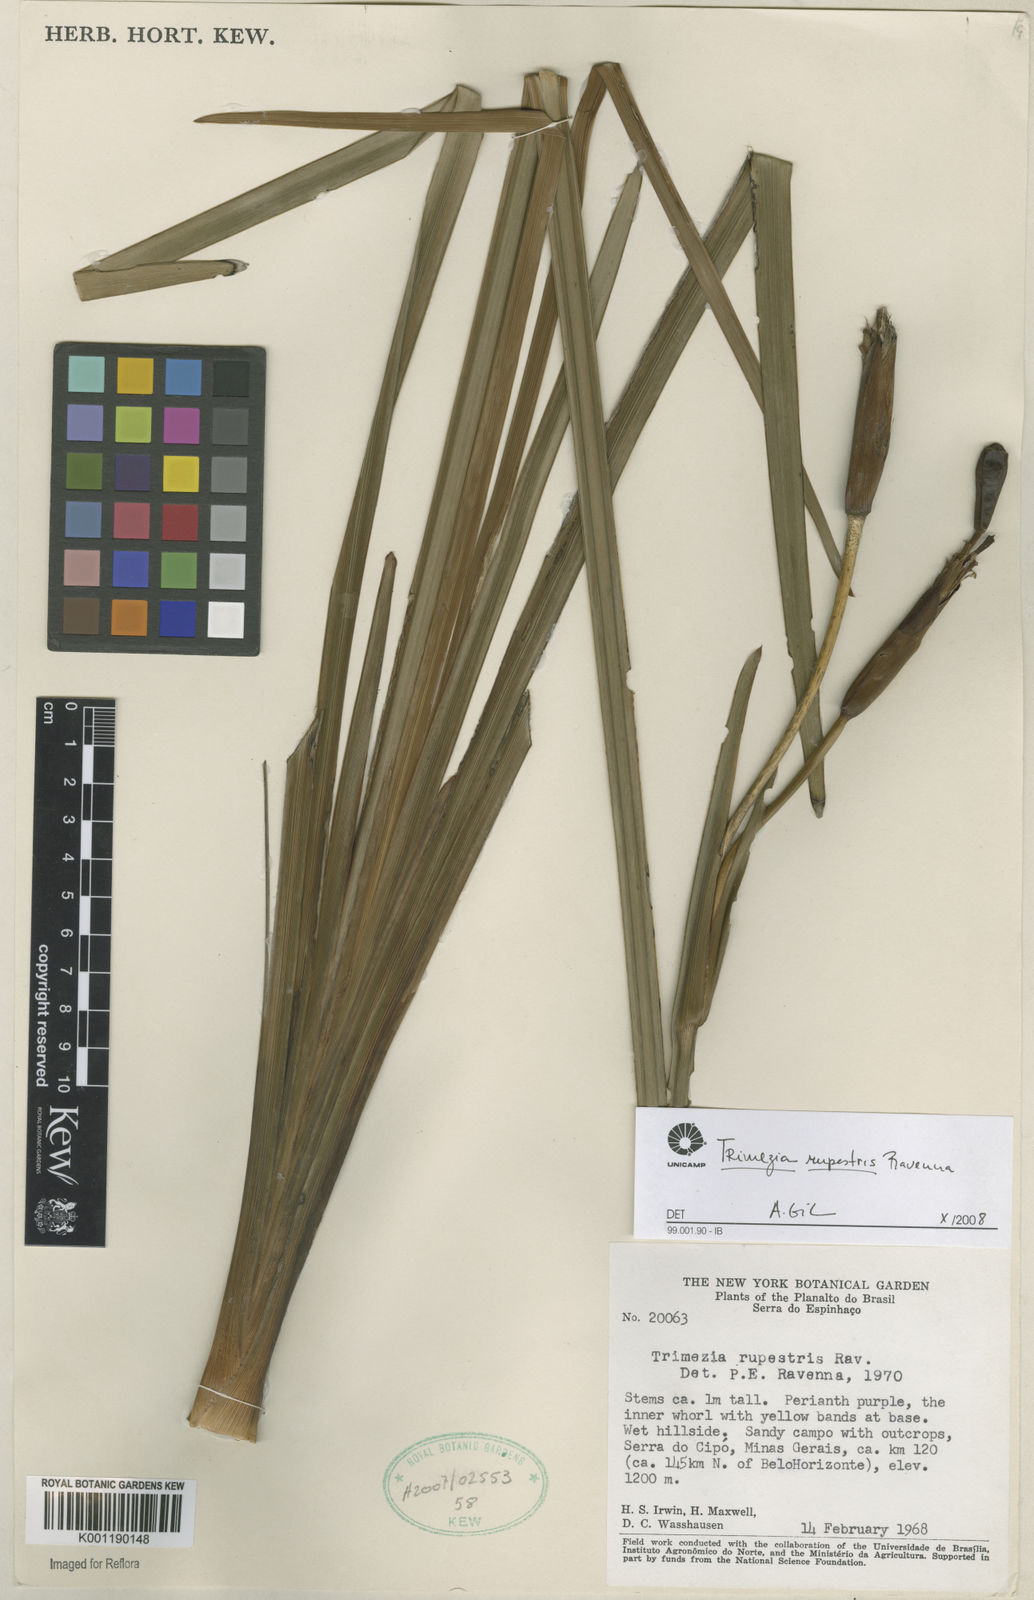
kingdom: Plantae
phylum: Tracheophyta
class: Liliopsida
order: Asparagales
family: Iridaceae
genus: Trimezia
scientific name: Trimezia
